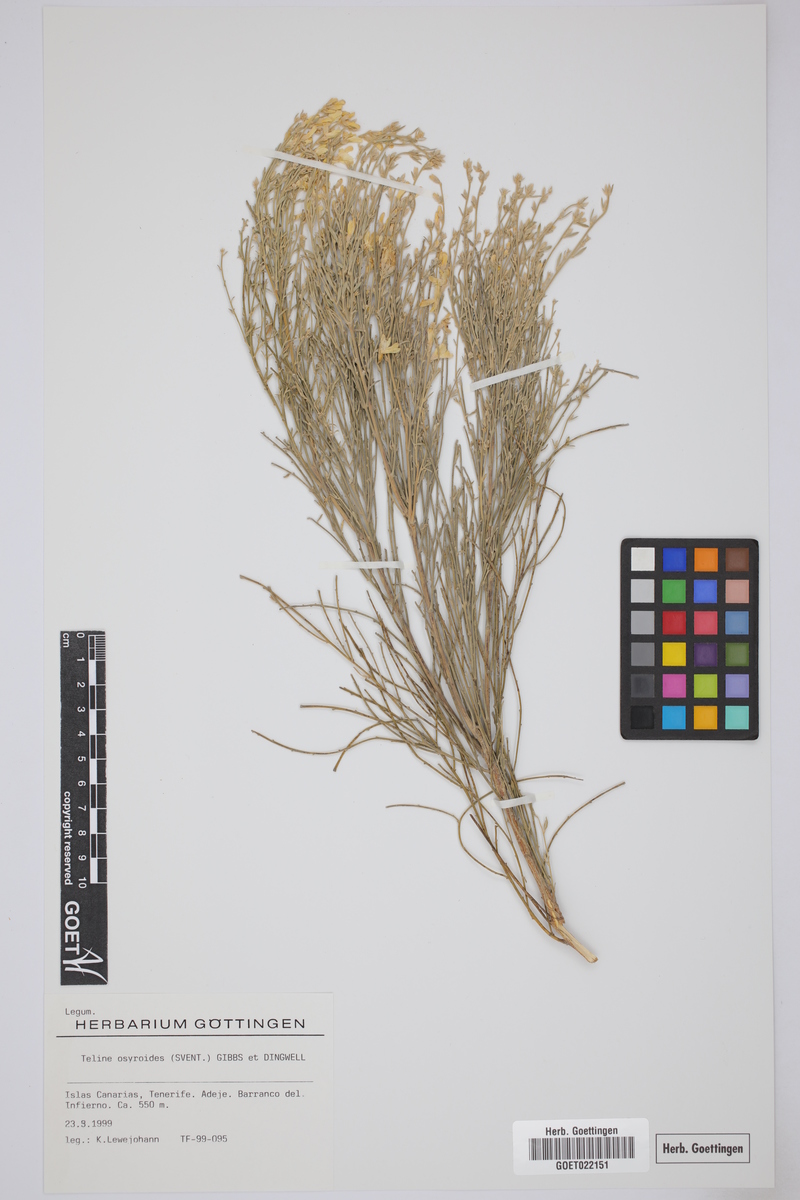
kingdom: Plantae
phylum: Tracheophyta
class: Magnoliopsida
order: Fabales
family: Fabaceae
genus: Cytisus
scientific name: Cytisus osyroides
